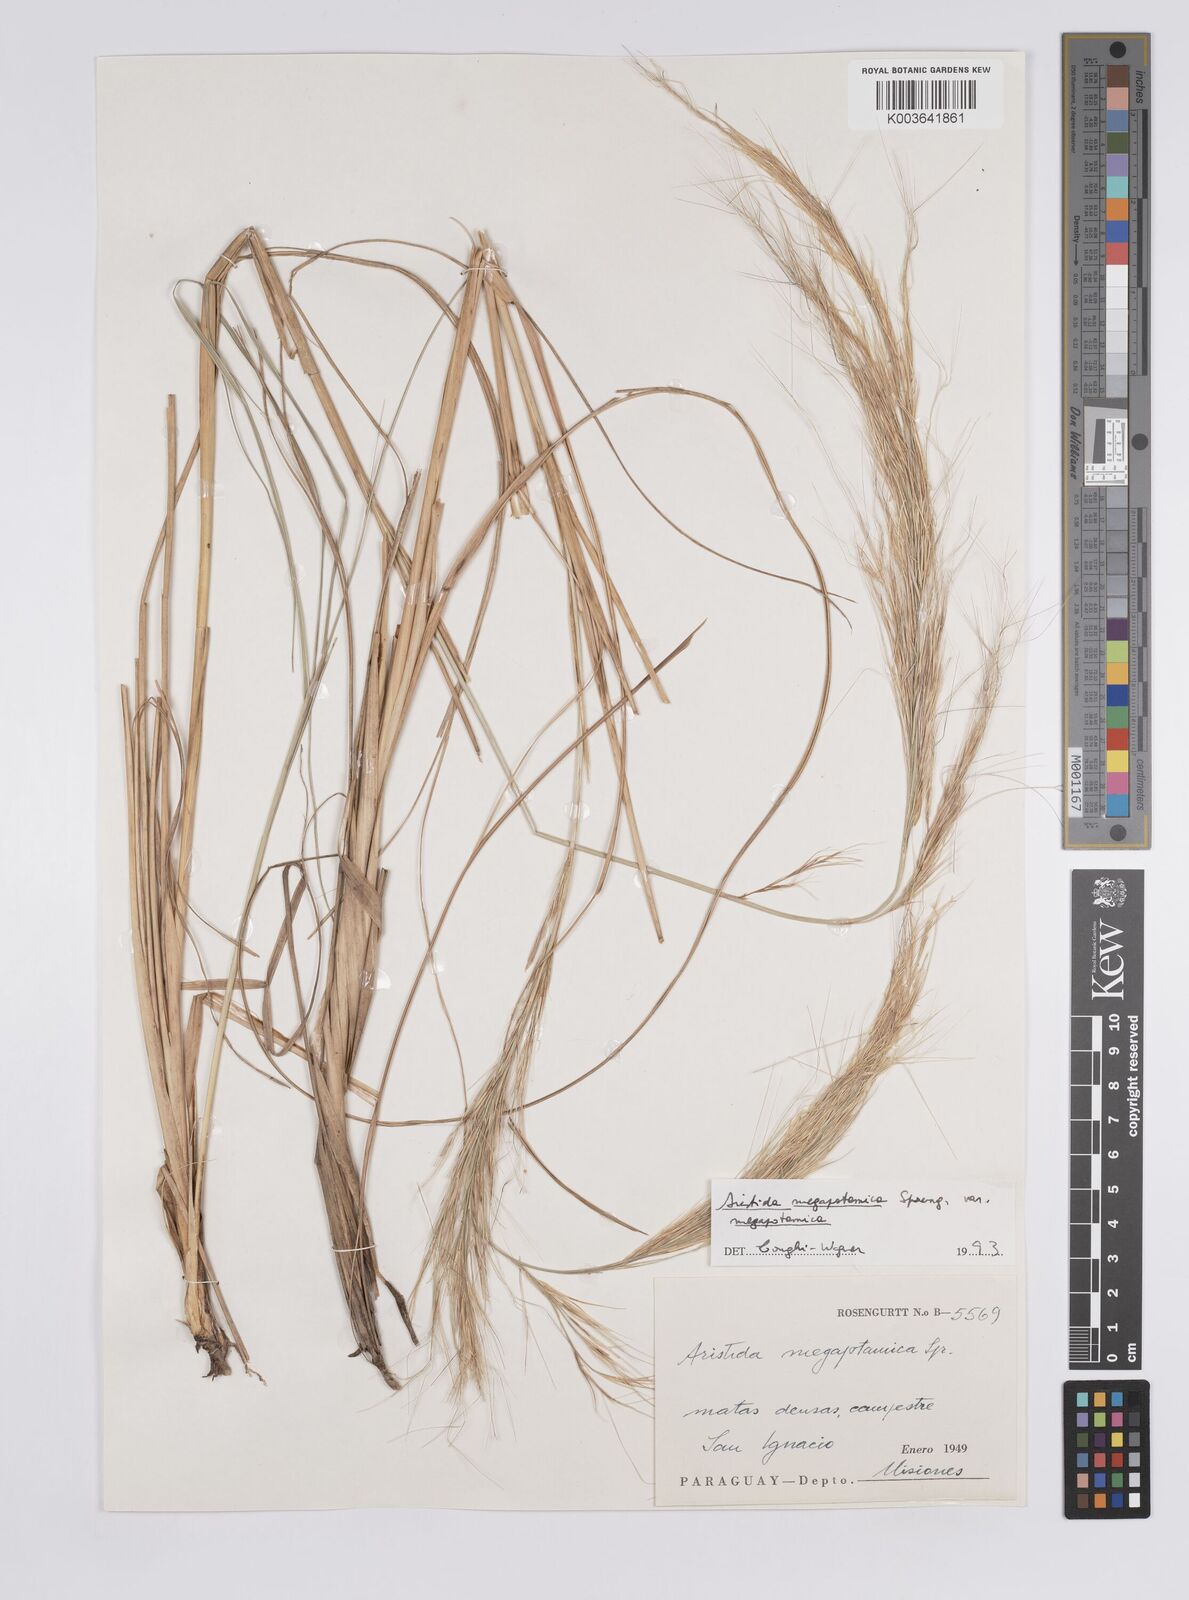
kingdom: Plantae
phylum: Tracheophyta
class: Liliopsida
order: Poales
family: Poaceae
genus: Aristida
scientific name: Aristida megapotamica
